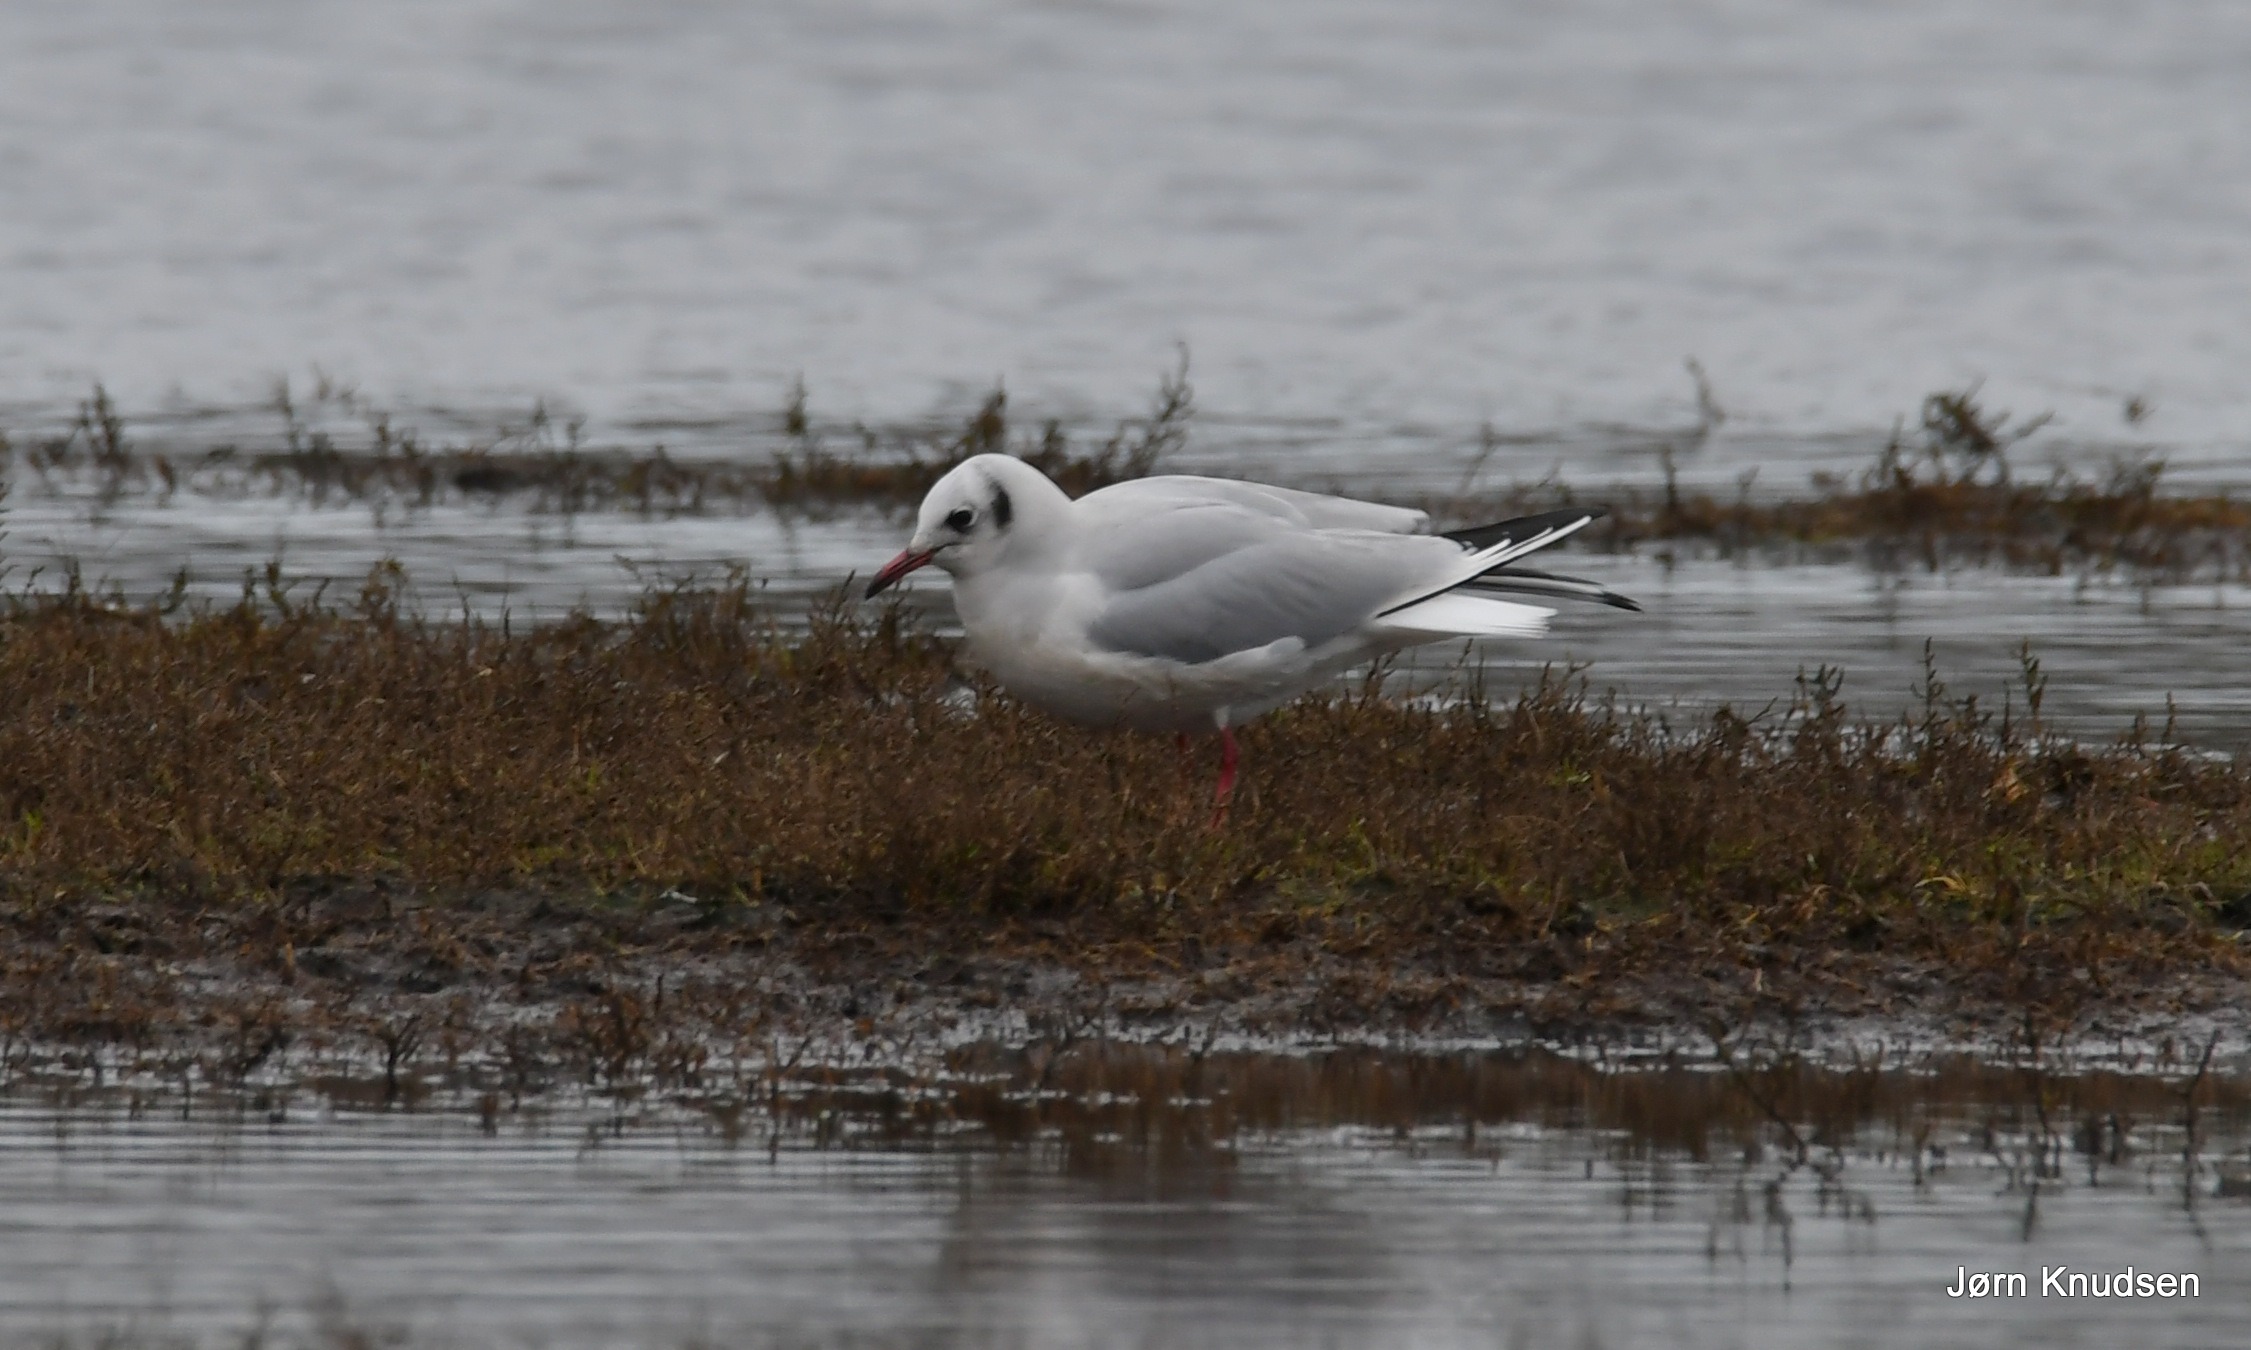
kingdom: Animalia
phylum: Chordata
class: Aves
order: Charadriiformes
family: Laridae
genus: Chroicocephalus
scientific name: Chroicocephalus ridibundus
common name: Hættemåge
